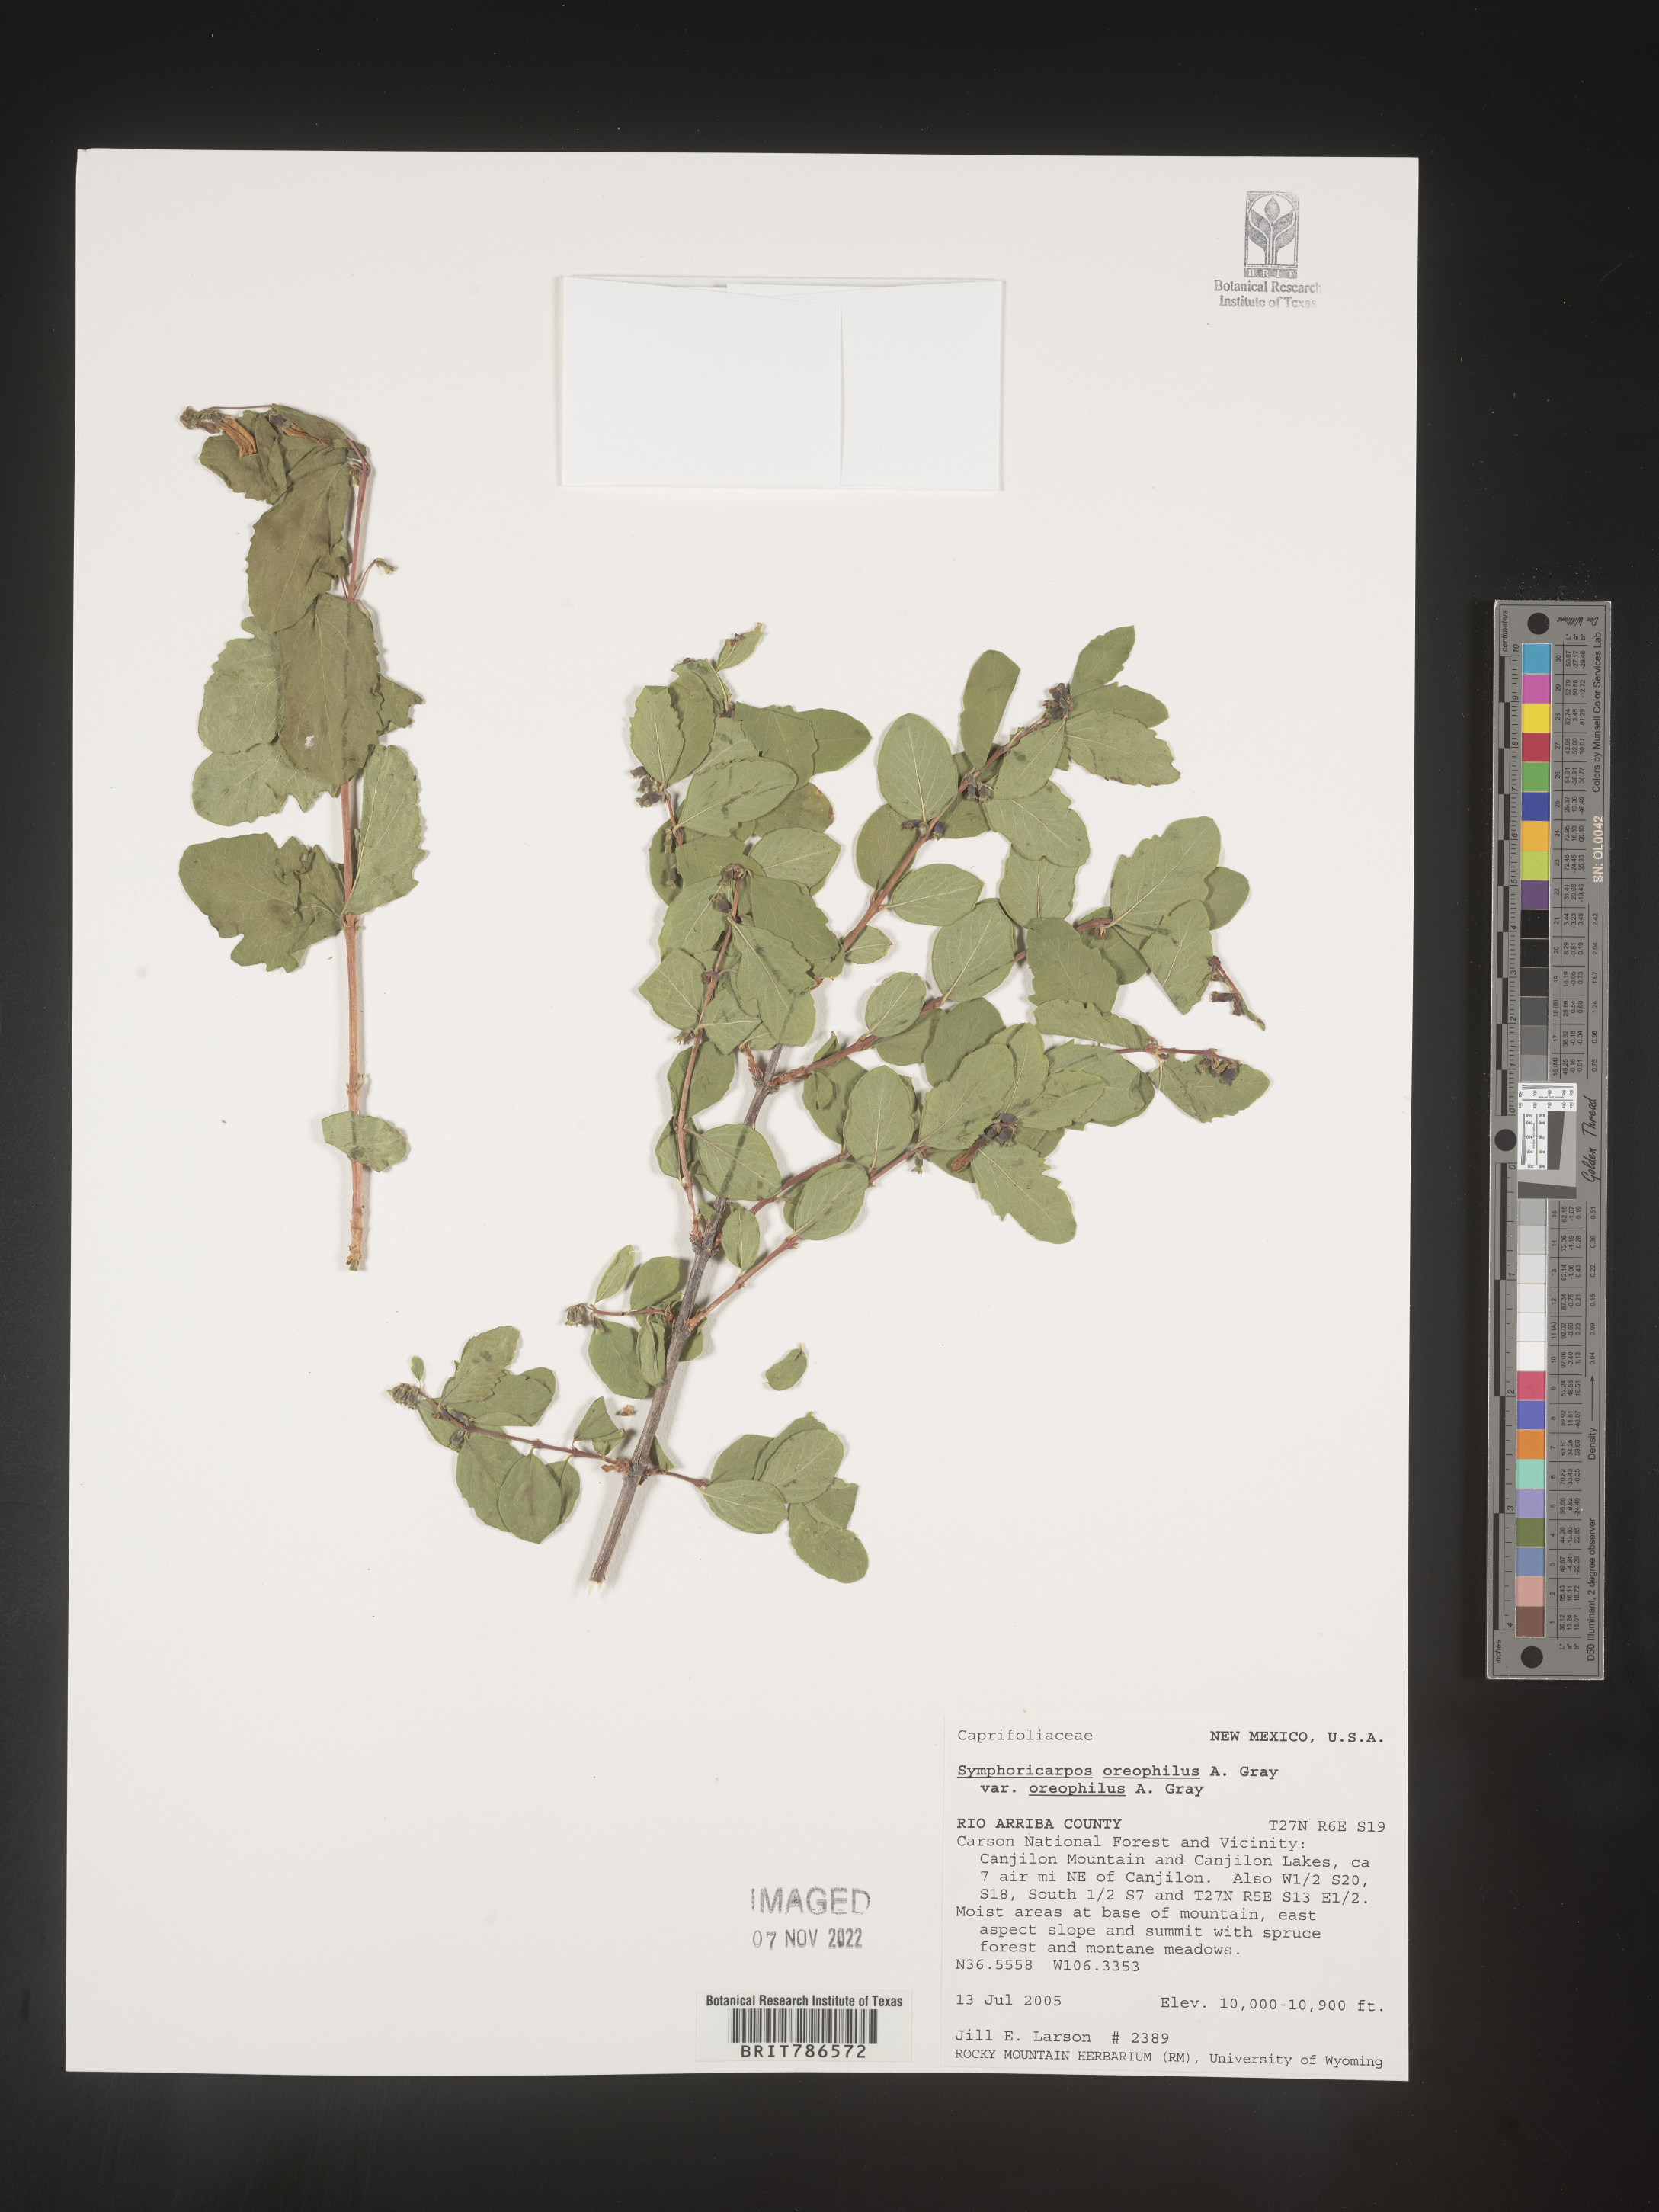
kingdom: Plantae
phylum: Tracheophyta
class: Magnoliopsida
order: Dipsacales
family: Caprifoliaceae
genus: Symphoricarpos
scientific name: Symphoricarpos oreophilus
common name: Mountain snowberry
